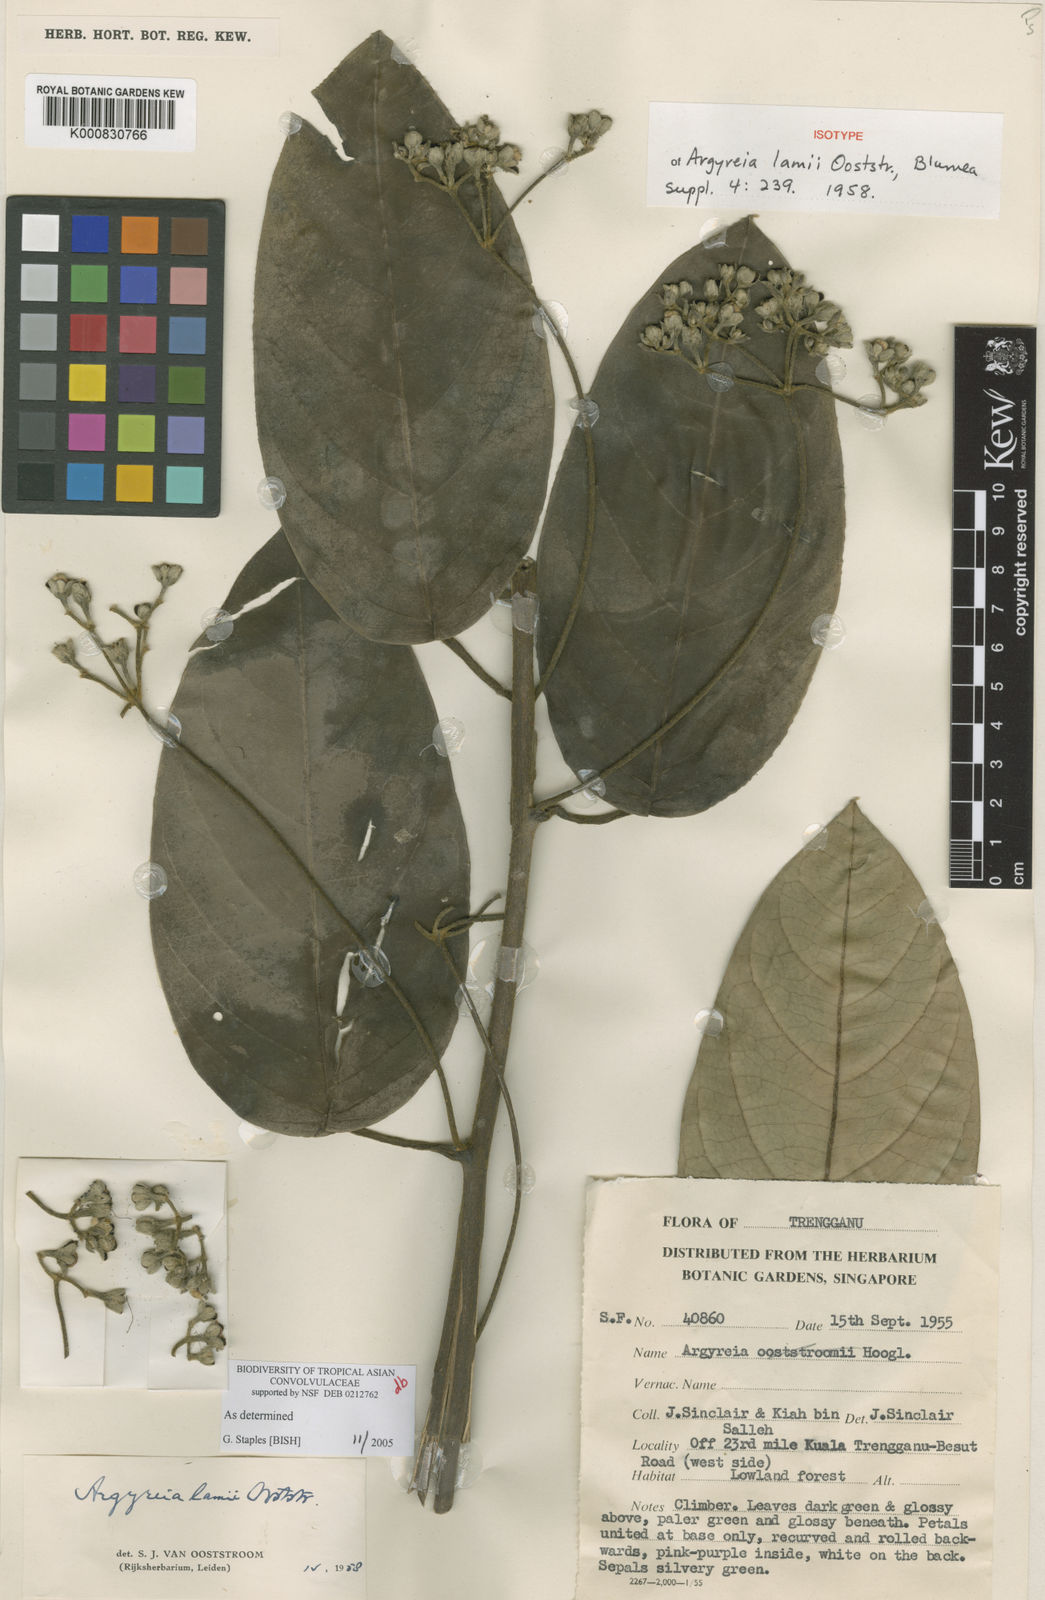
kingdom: Plantae
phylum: Tracheophyta
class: Magnoliopsida
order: Solanales
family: Convolvulaceae
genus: Argyreia
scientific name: Argyreia lamii
